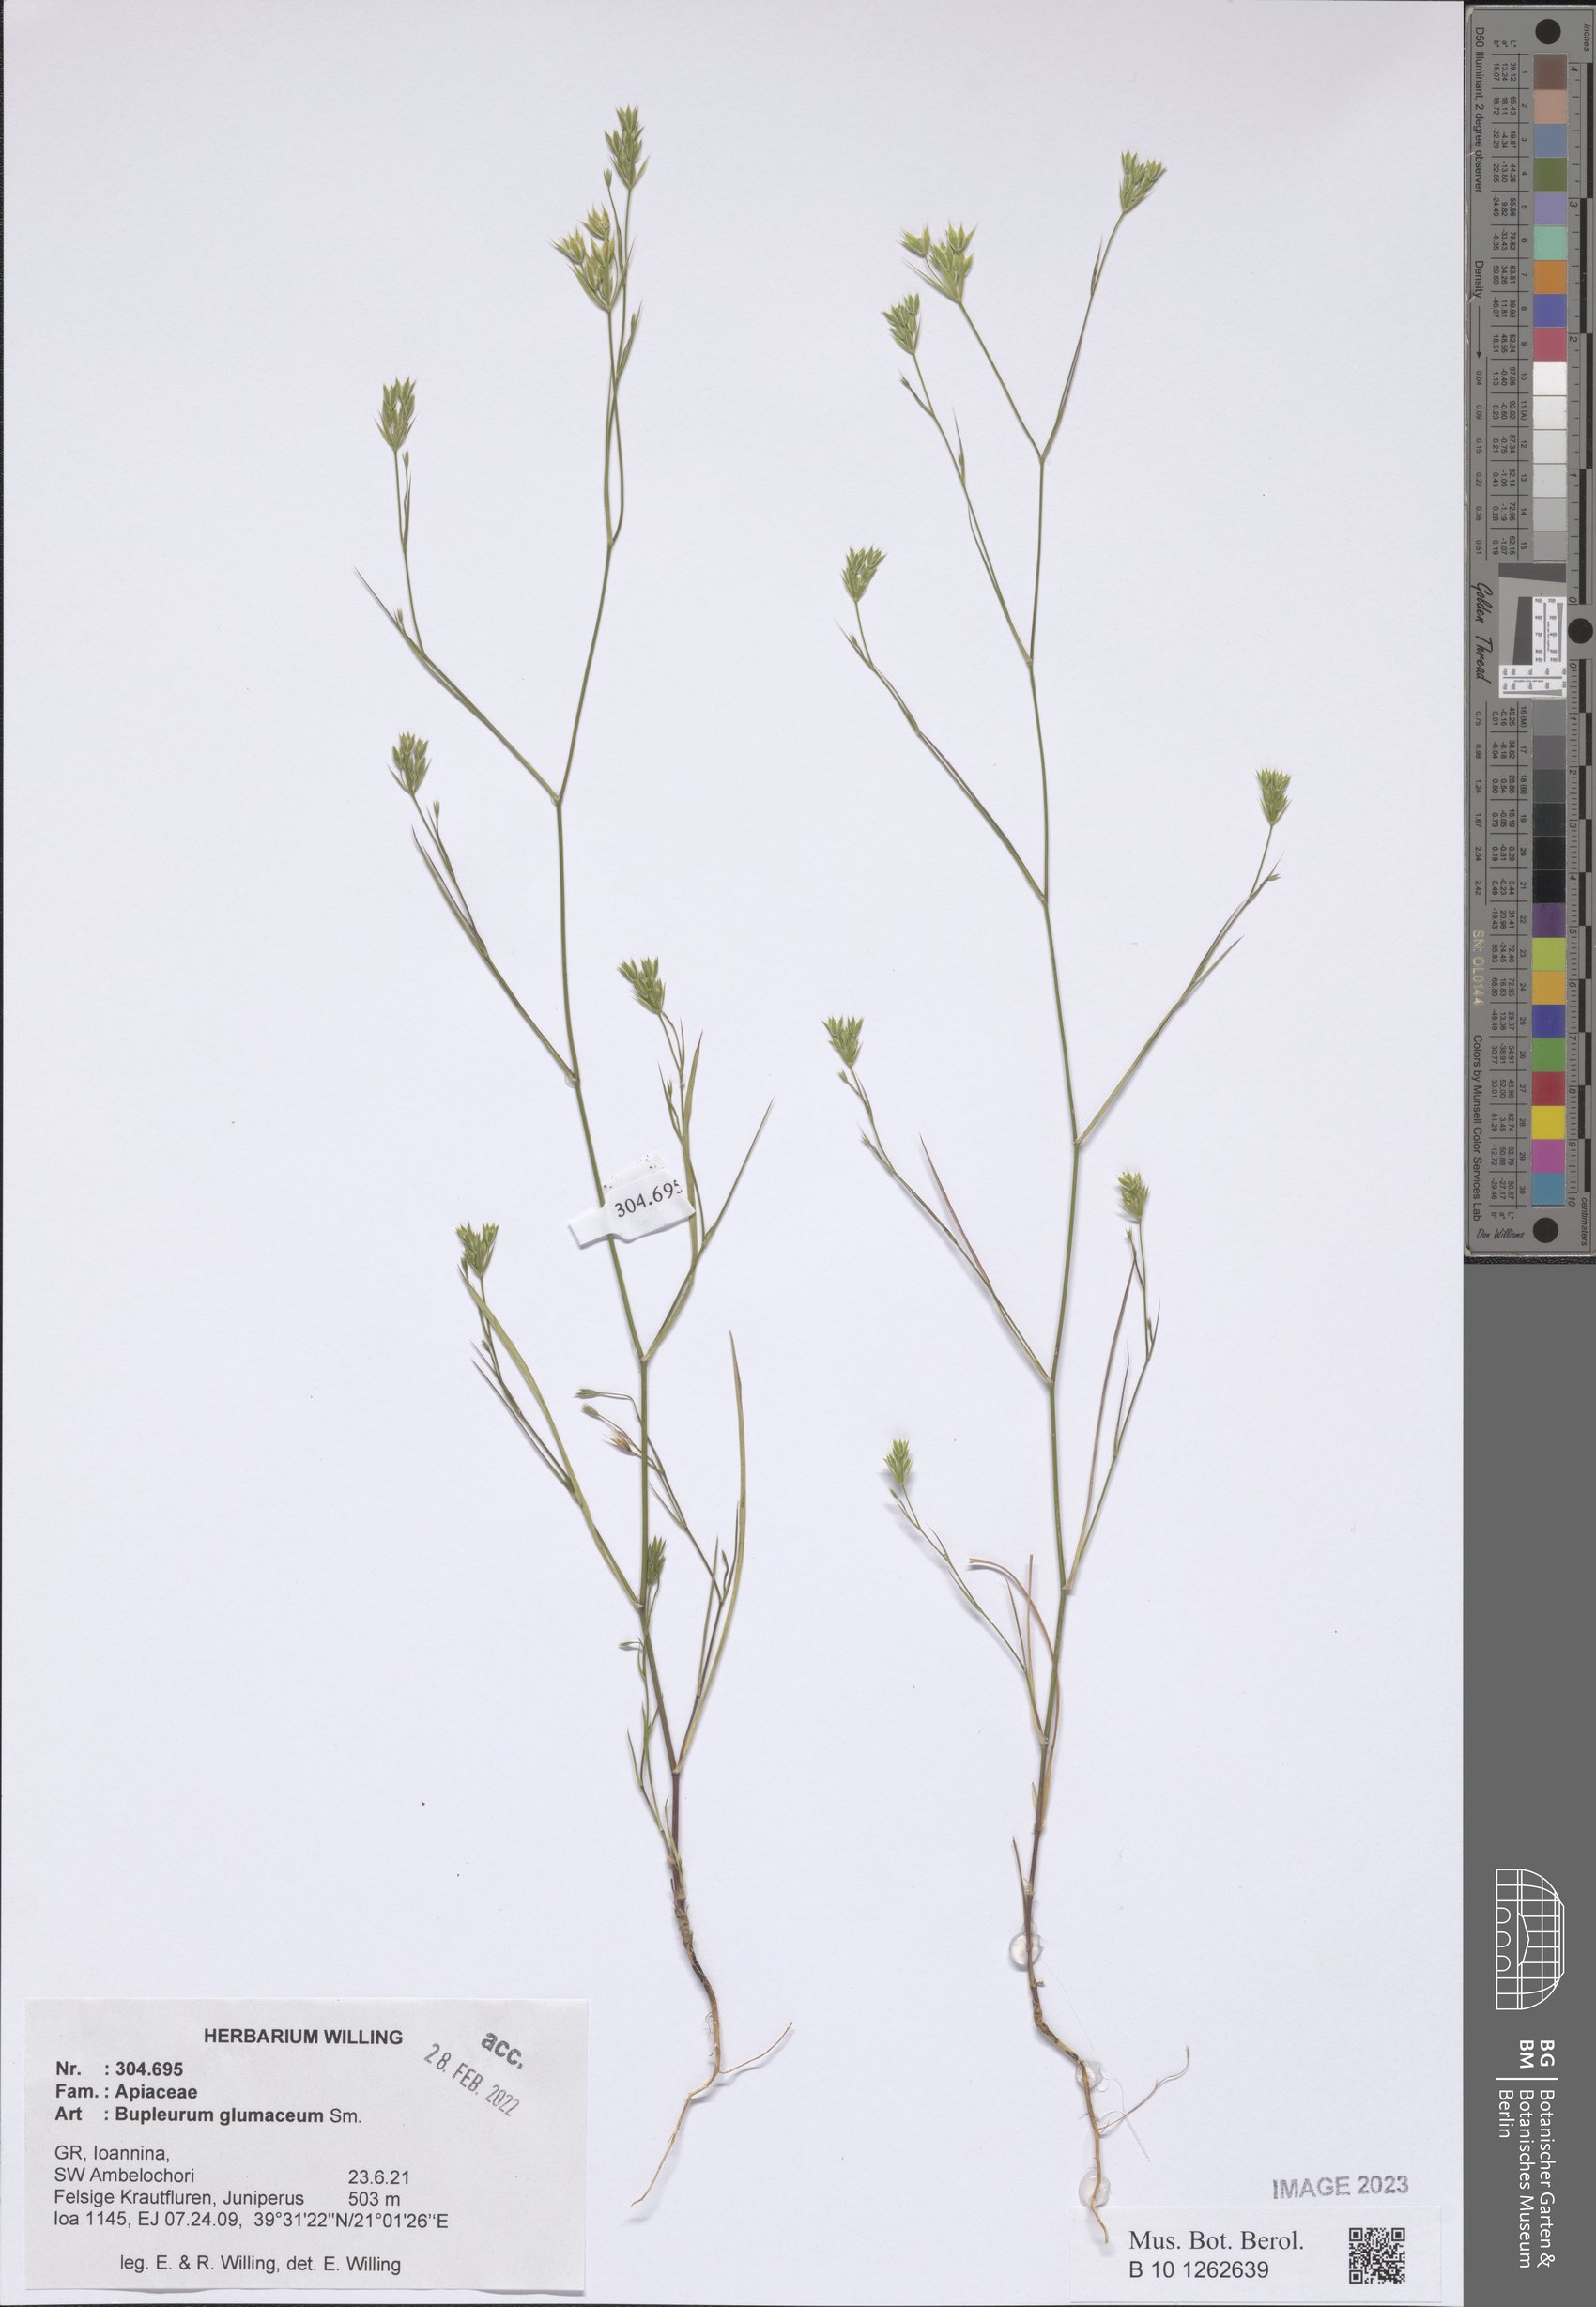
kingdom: Plantae
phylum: Tracheophyta
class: Magnoliopsida
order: Apiales
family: Apiaceae
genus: Bupleurum
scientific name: Bupleurum glumaceum
